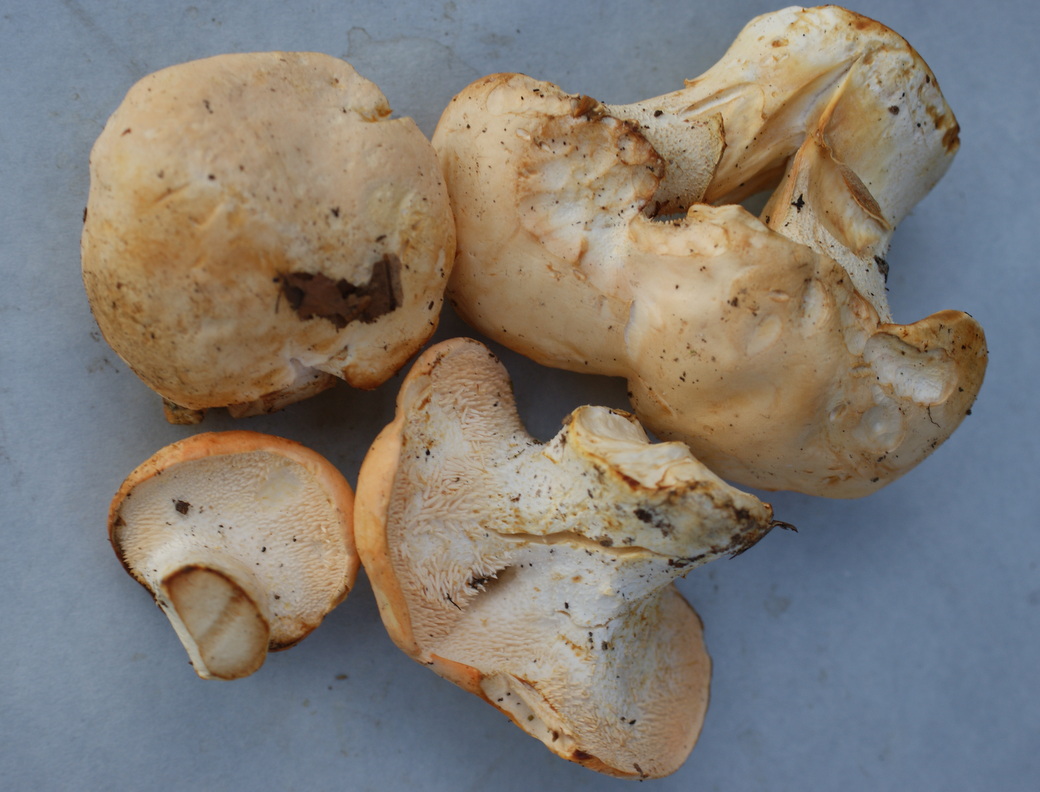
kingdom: Fungi
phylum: Basidiomycota
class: Agaricomycetes
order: Cantharellales
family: Hydnaceae
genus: Hydnum
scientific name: Hydnum repandum
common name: almindelig pigsvamp
